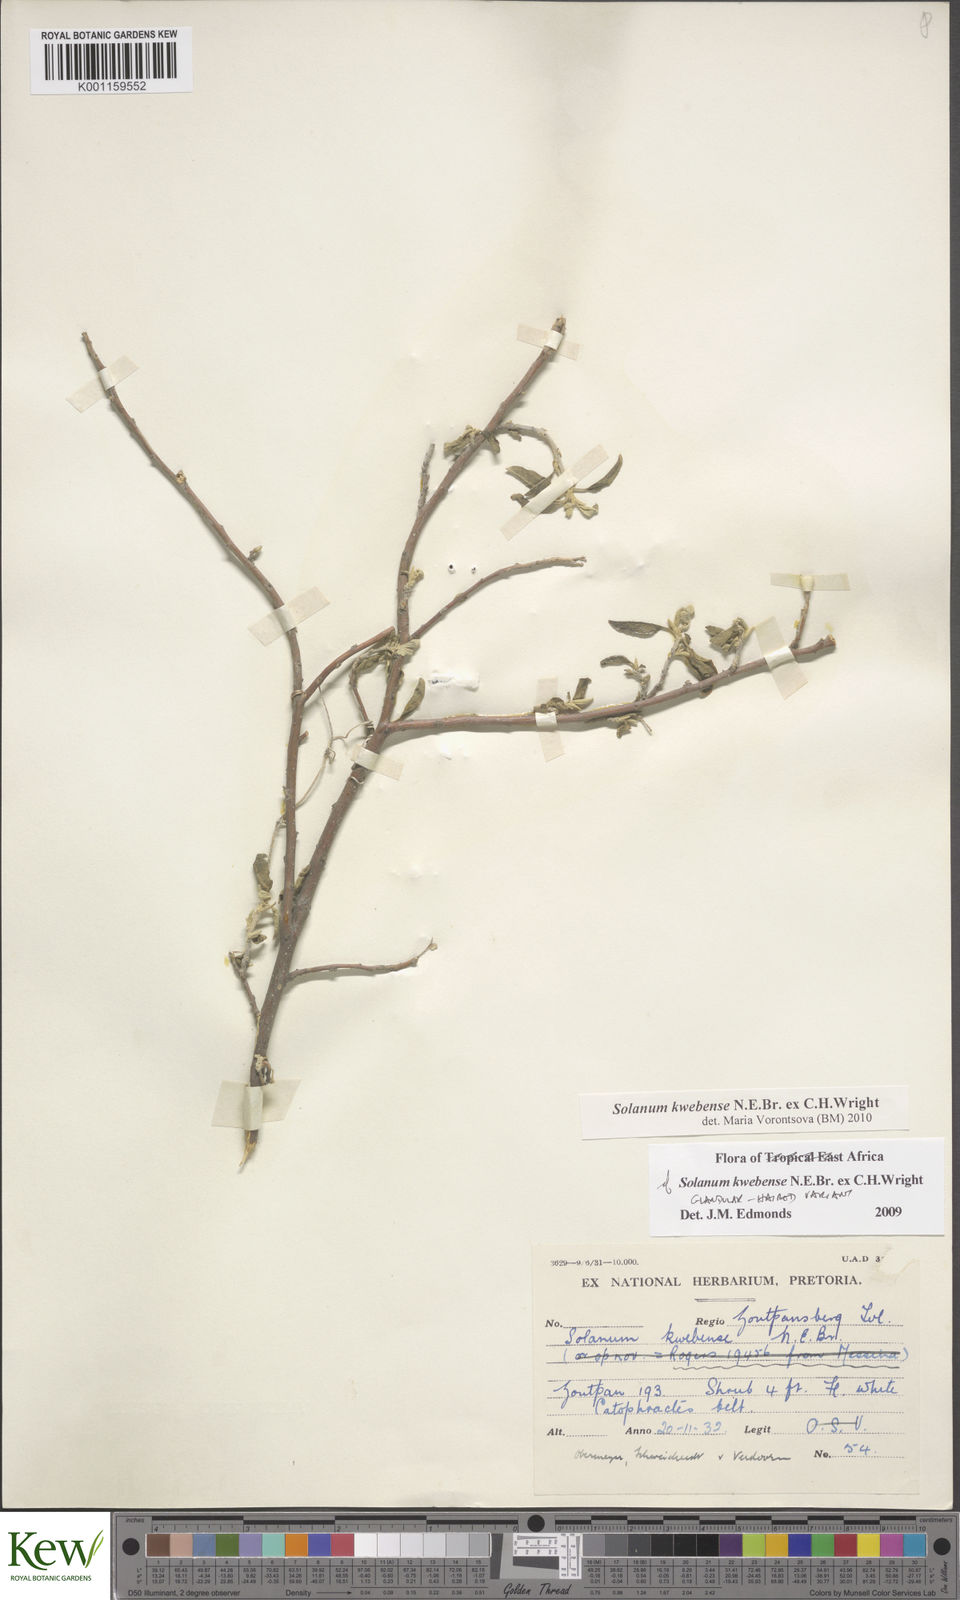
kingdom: Plantae
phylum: Tracheophyta
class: Magnoliopsida
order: Solanales
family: Solanaceae
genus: Solanum
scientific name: Solanum tettense
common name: Mozambique bitter apple
